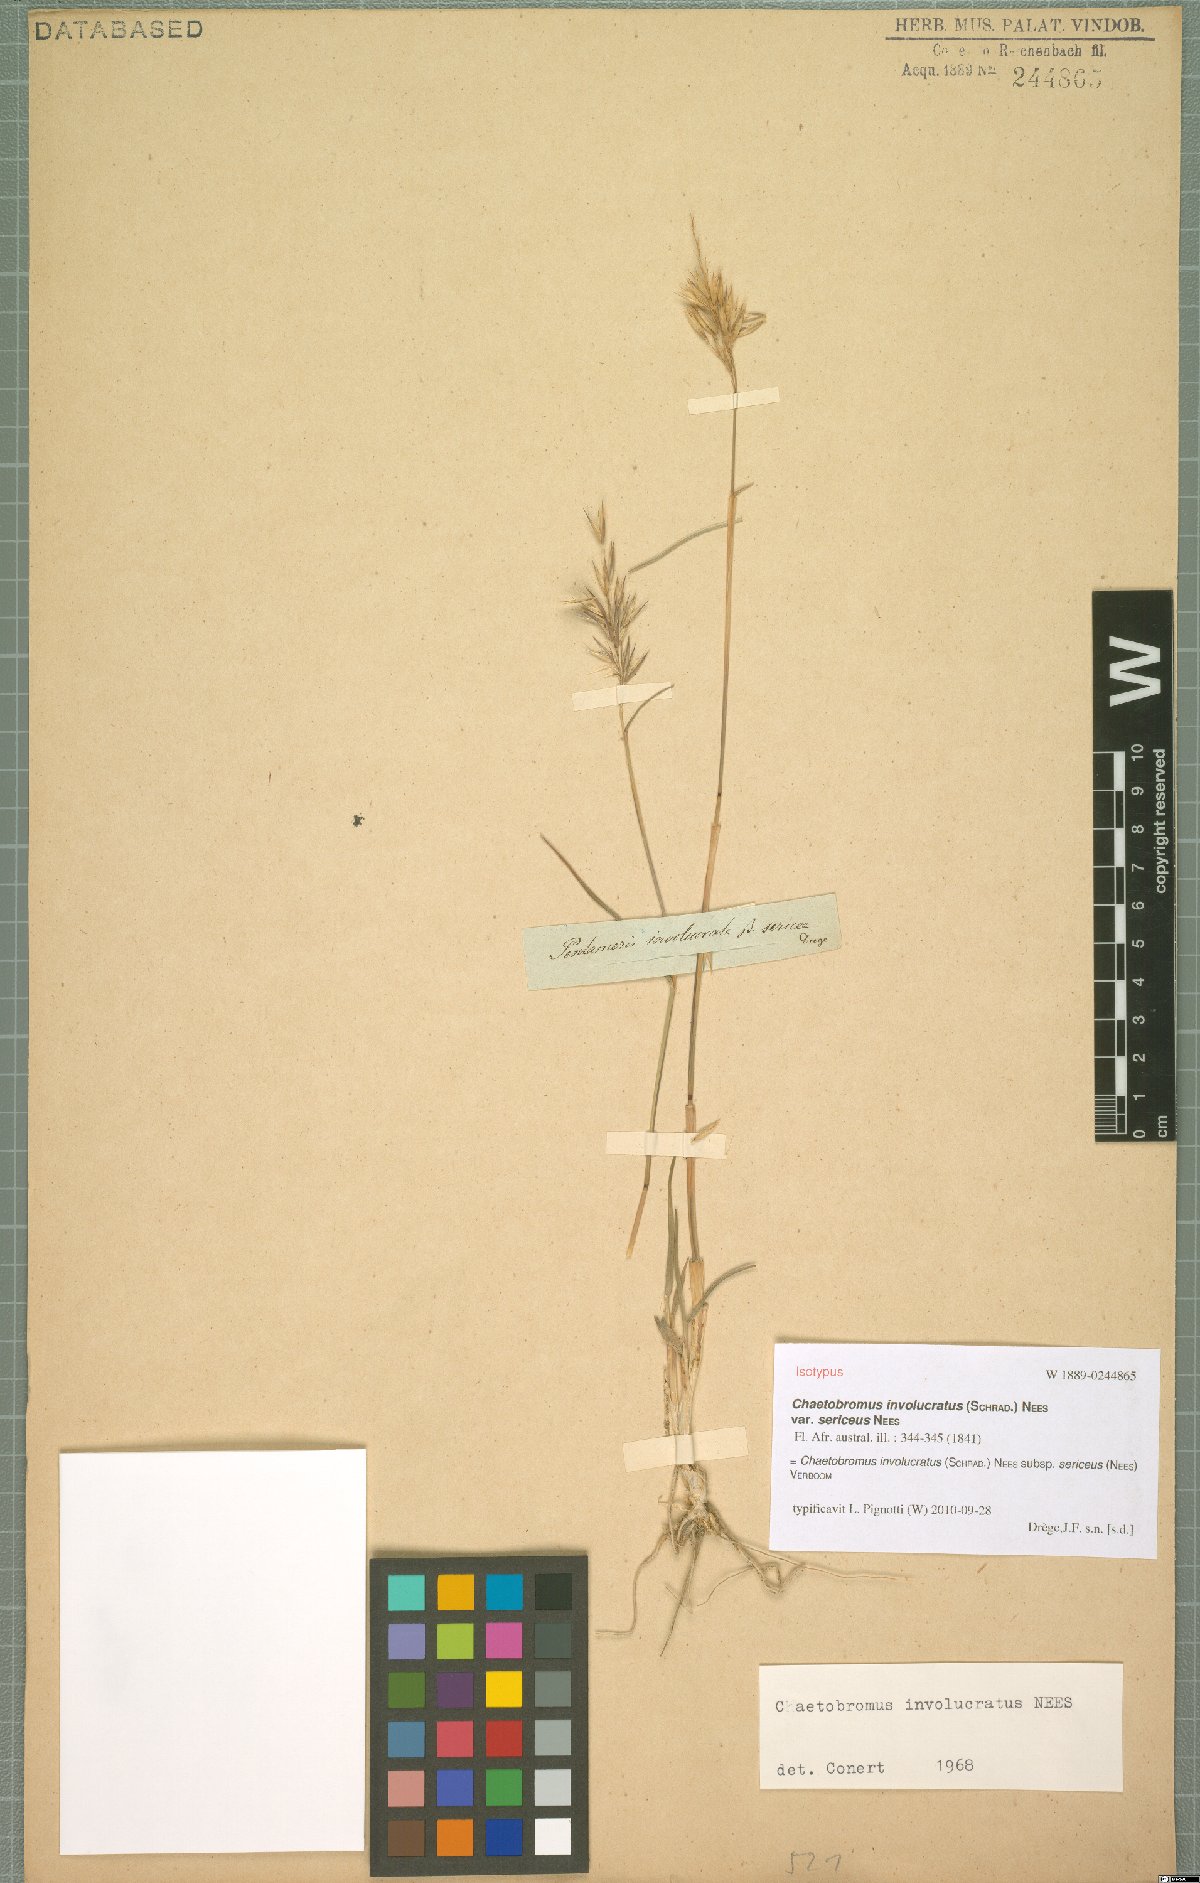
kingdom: Plantae
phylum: Tracheophyta
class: Liliopsida
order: Poales
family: Poaceae
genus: Chaetobromus
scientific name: Chaetobromus involucratus
